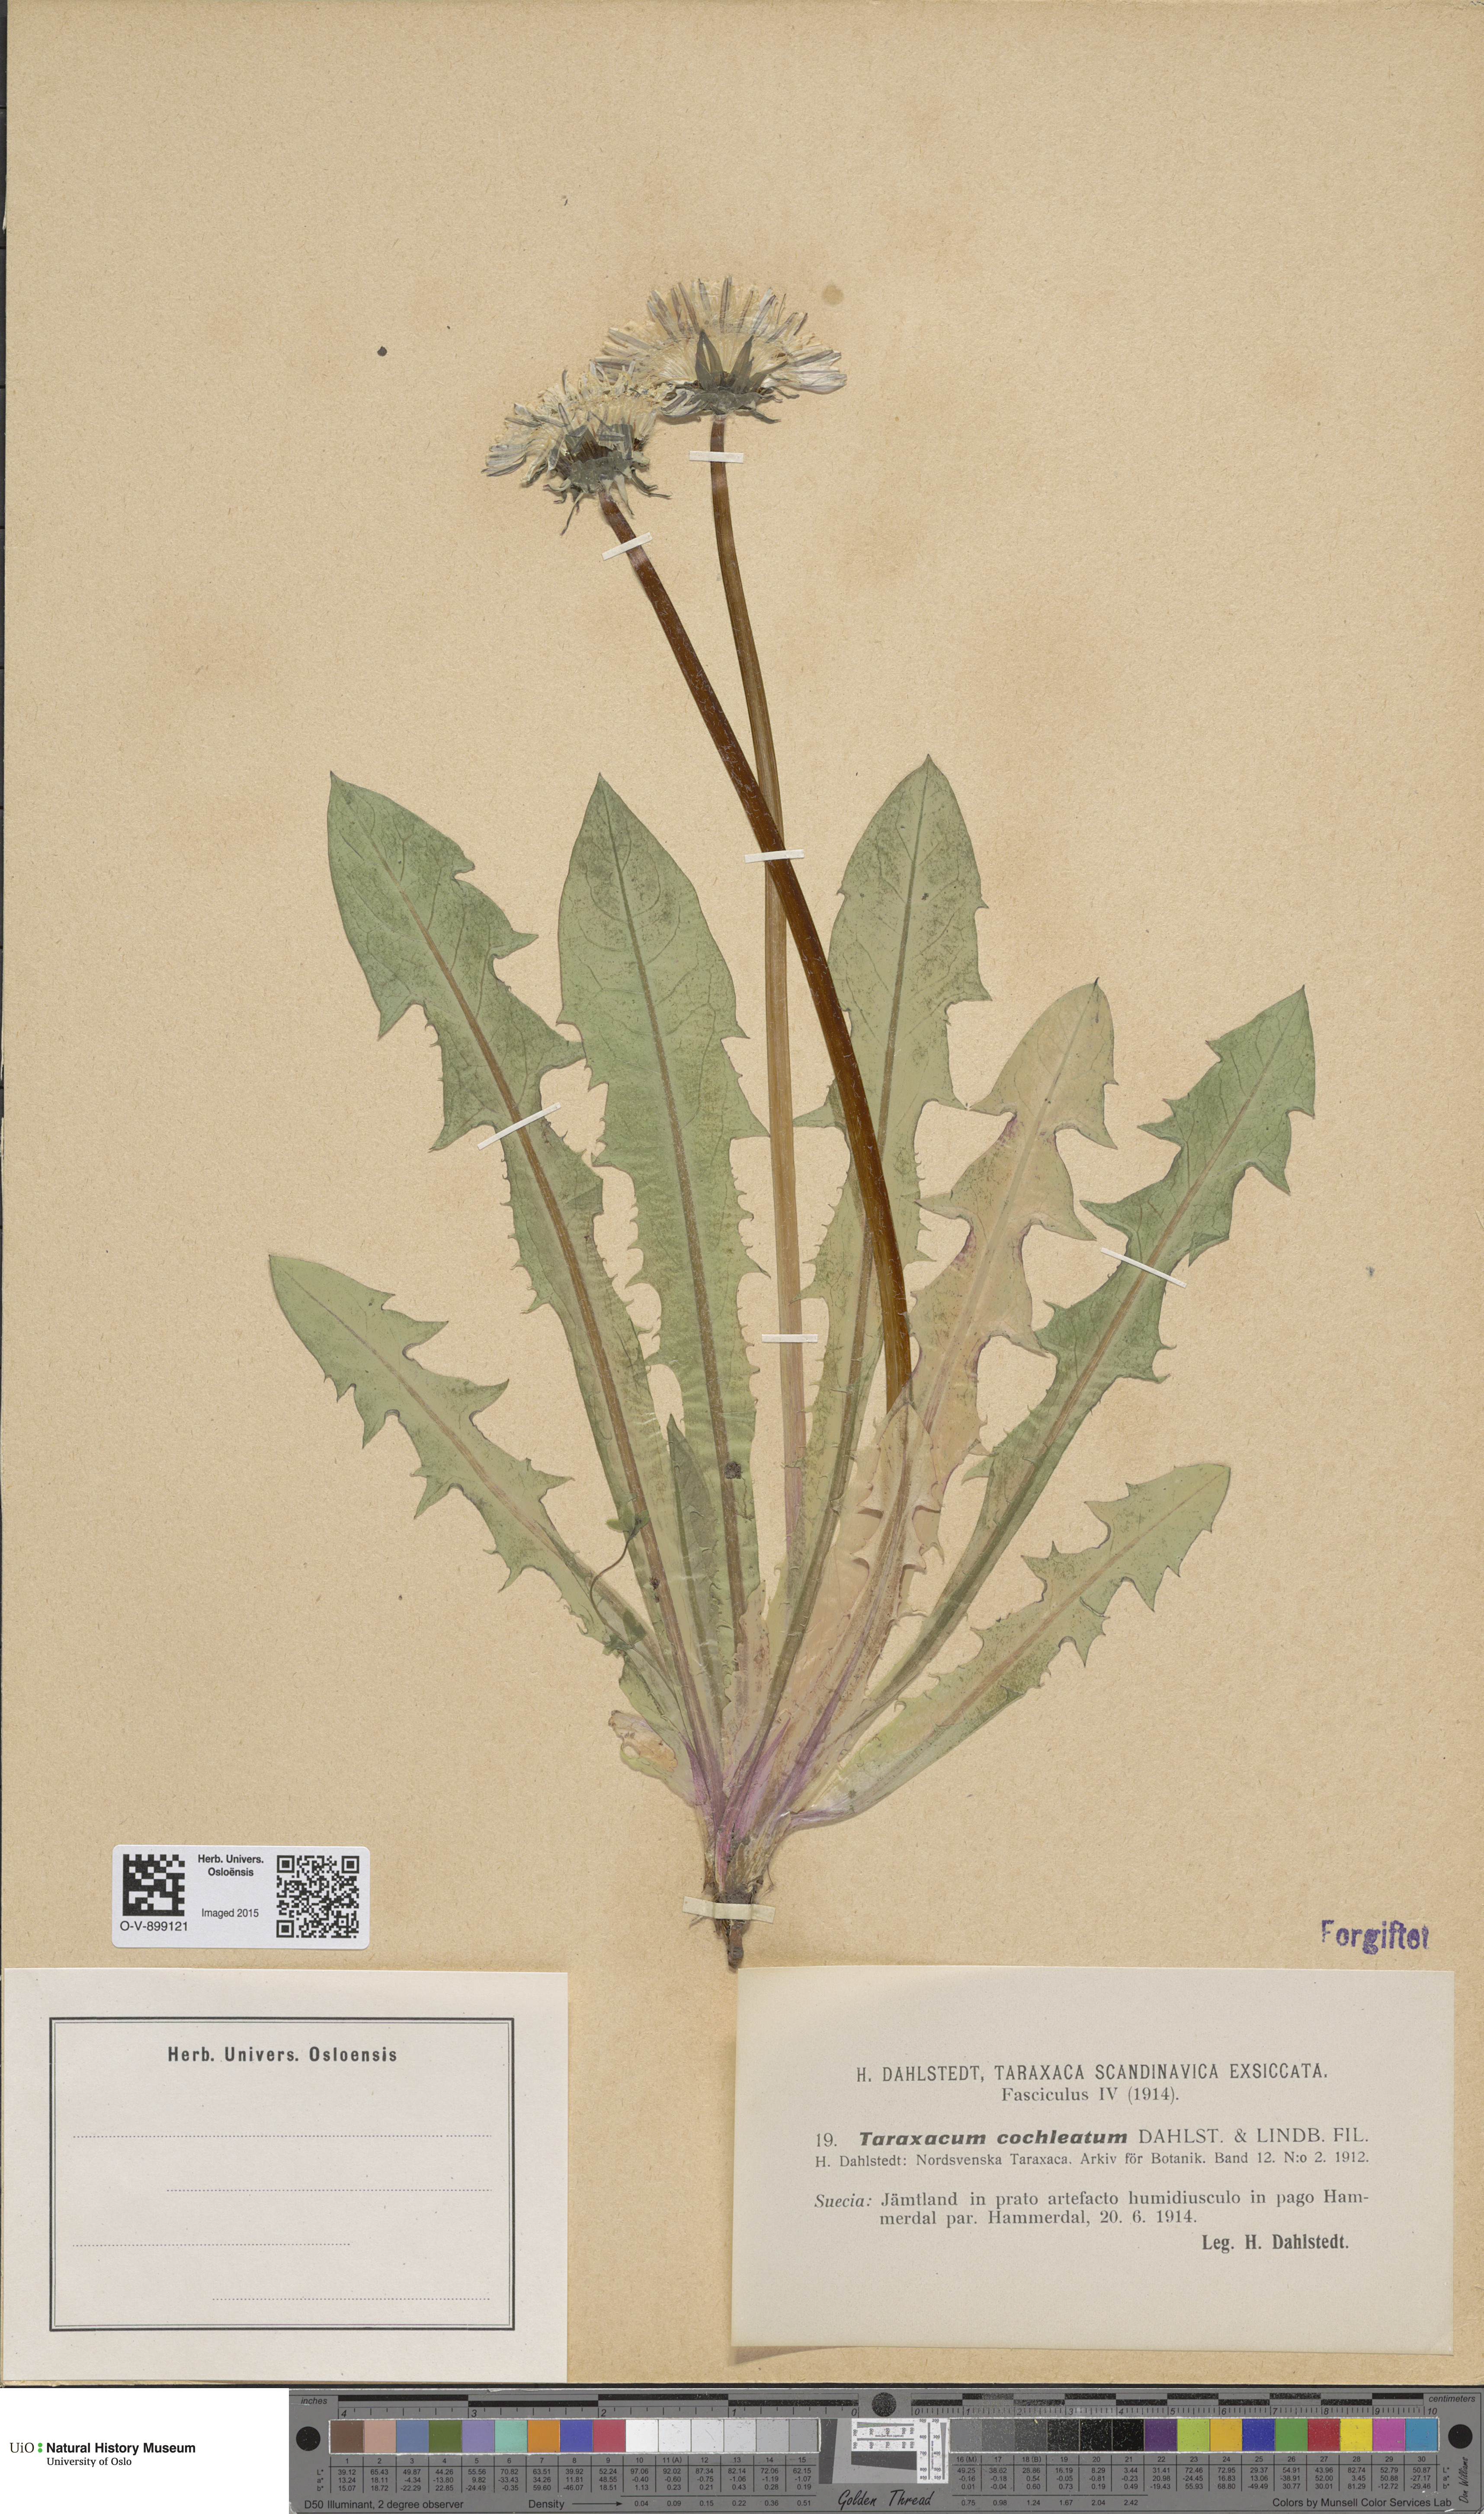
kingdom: Plantae
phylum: Tracheophyta
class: Magnoliopsida
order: Asterales
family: Asteraceae
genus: Taraxacum
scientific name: Taraxacum cochleatum
